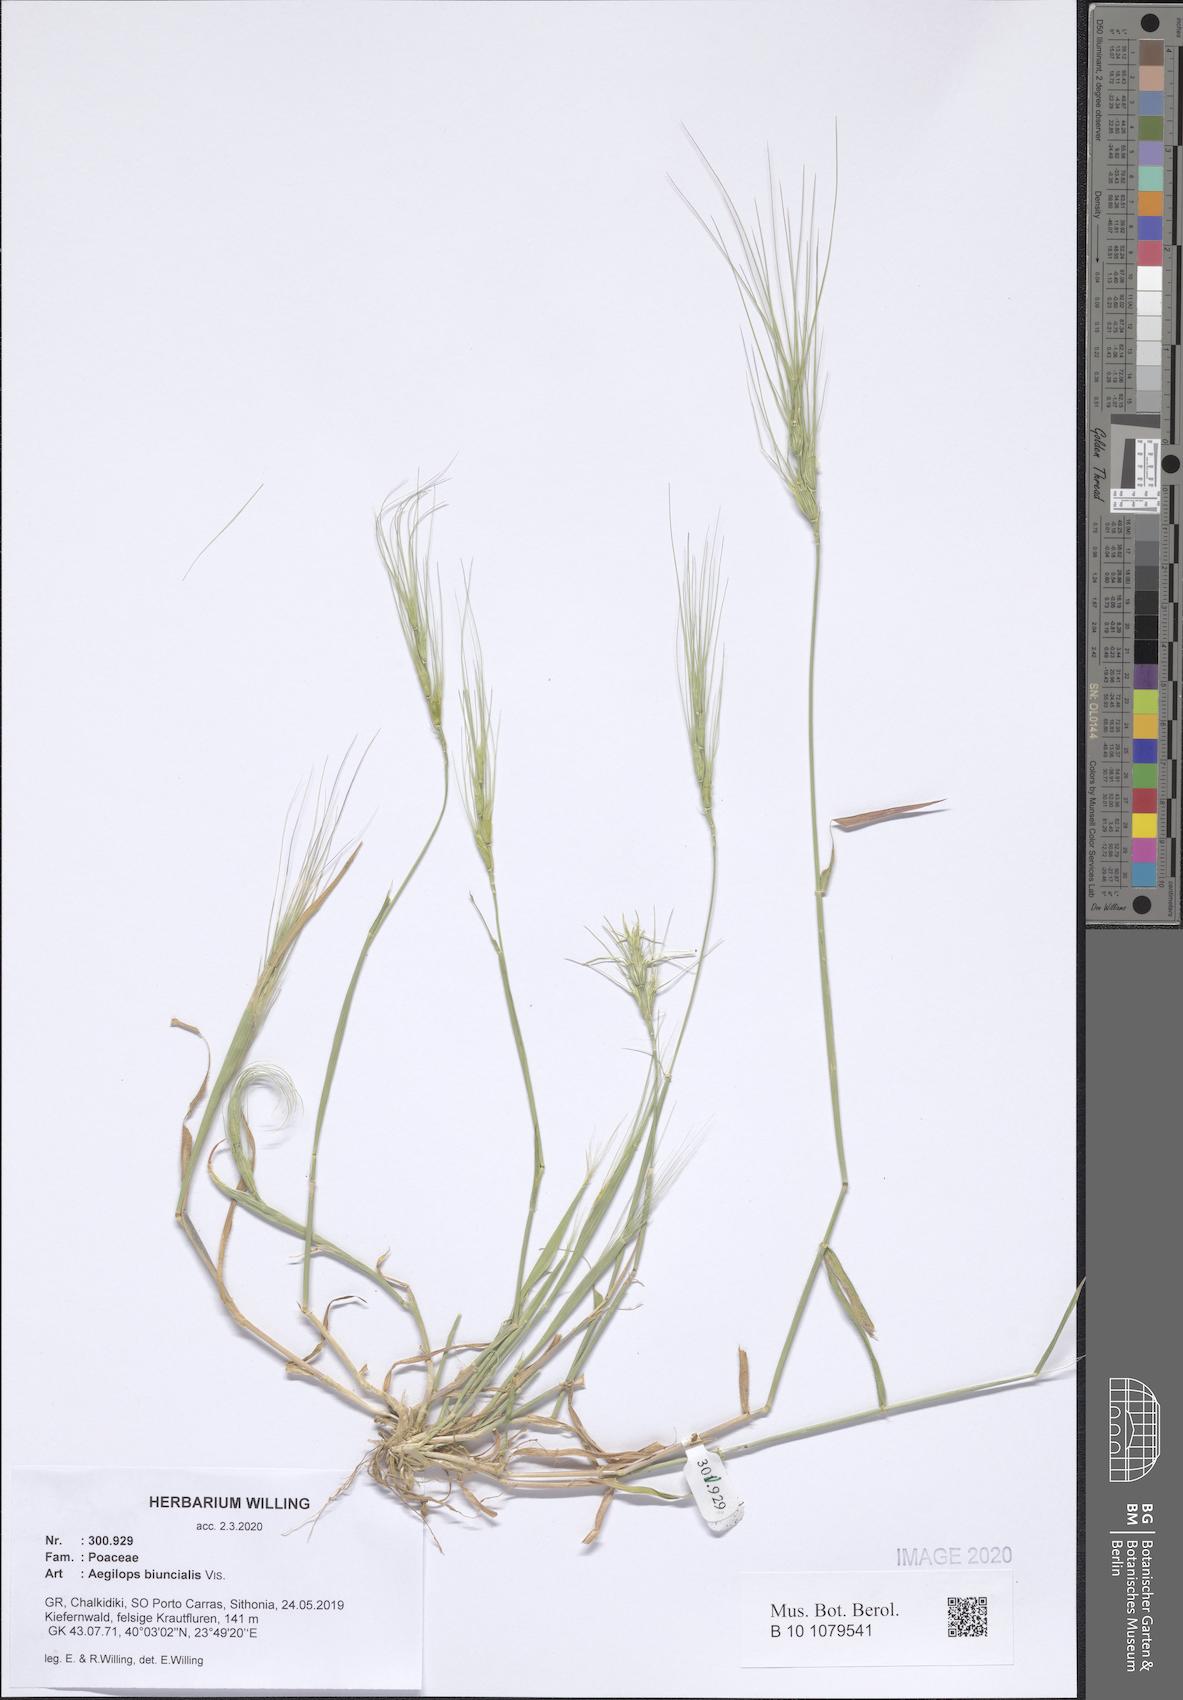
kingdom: Plantae
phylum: Tracheophyta
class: Liliopsida
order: Poales
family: Poaceae
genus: Aegilops
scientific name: Aegilops biuncialis
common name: Mediterranean aegilops
